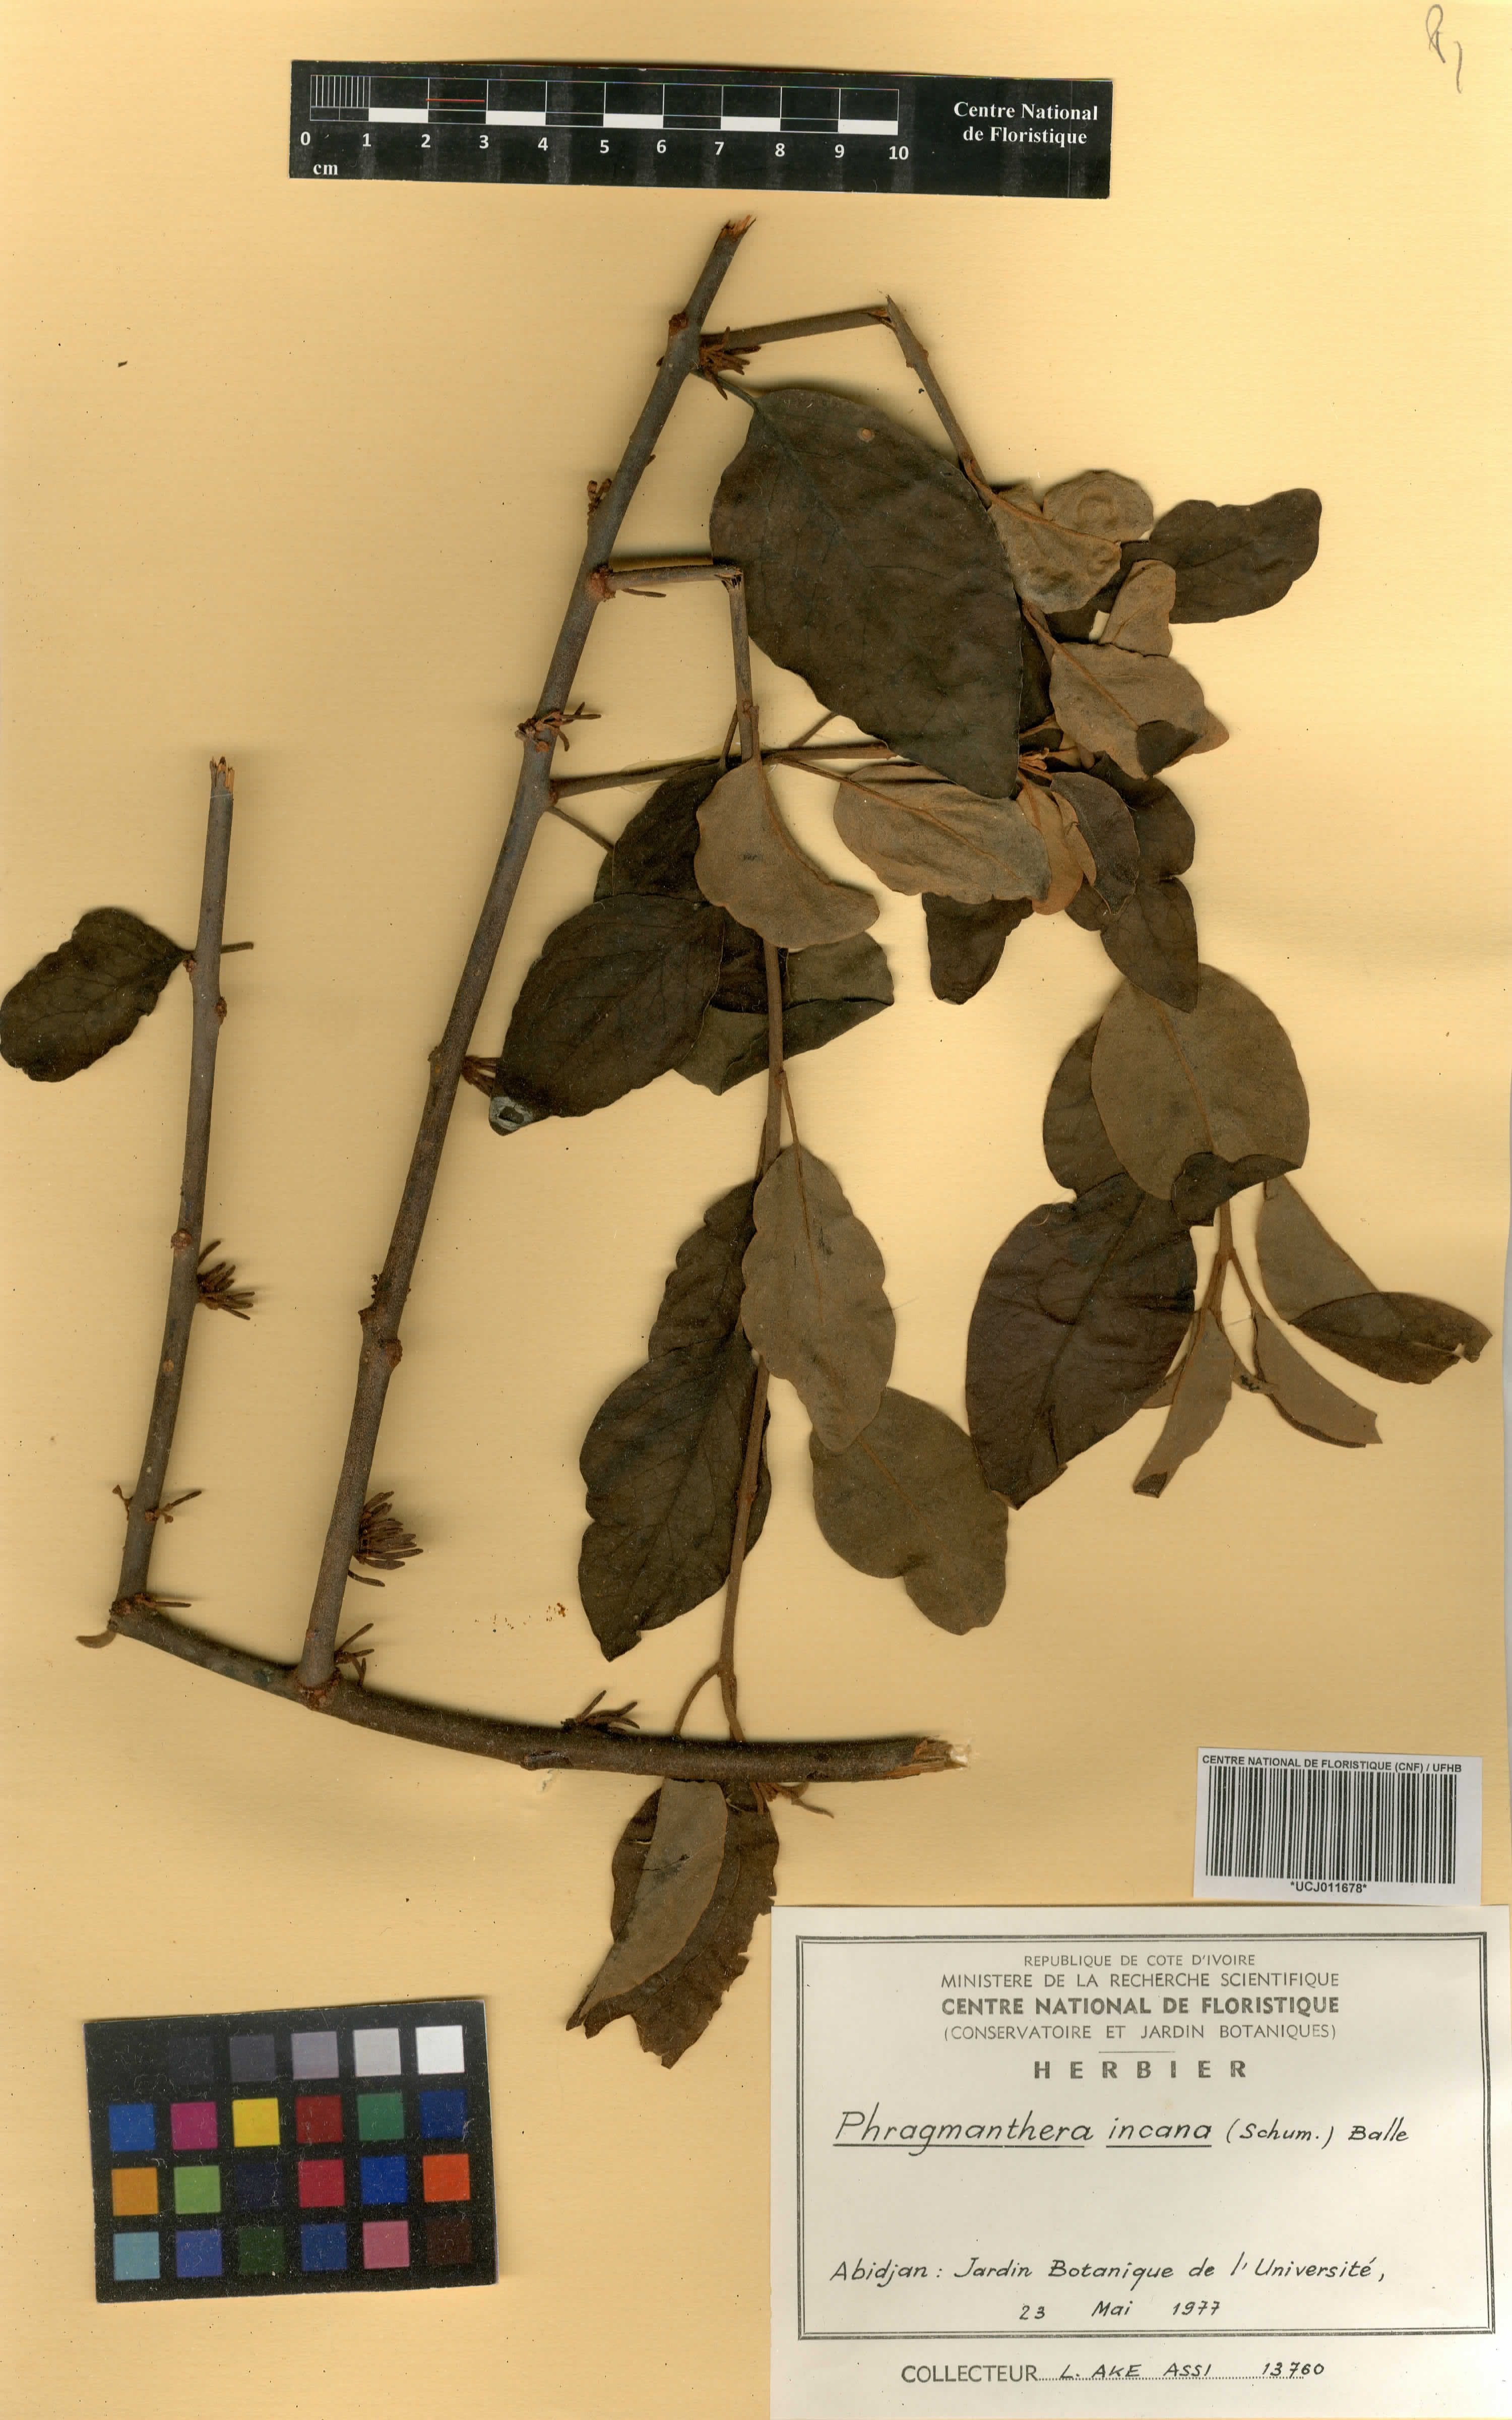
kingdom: Plantae
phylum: Tracheophyta
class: Magnoliopsida
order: Santalales
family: Loranthaceae
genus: Phragmanthera
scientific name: Phragmanthera capitata
